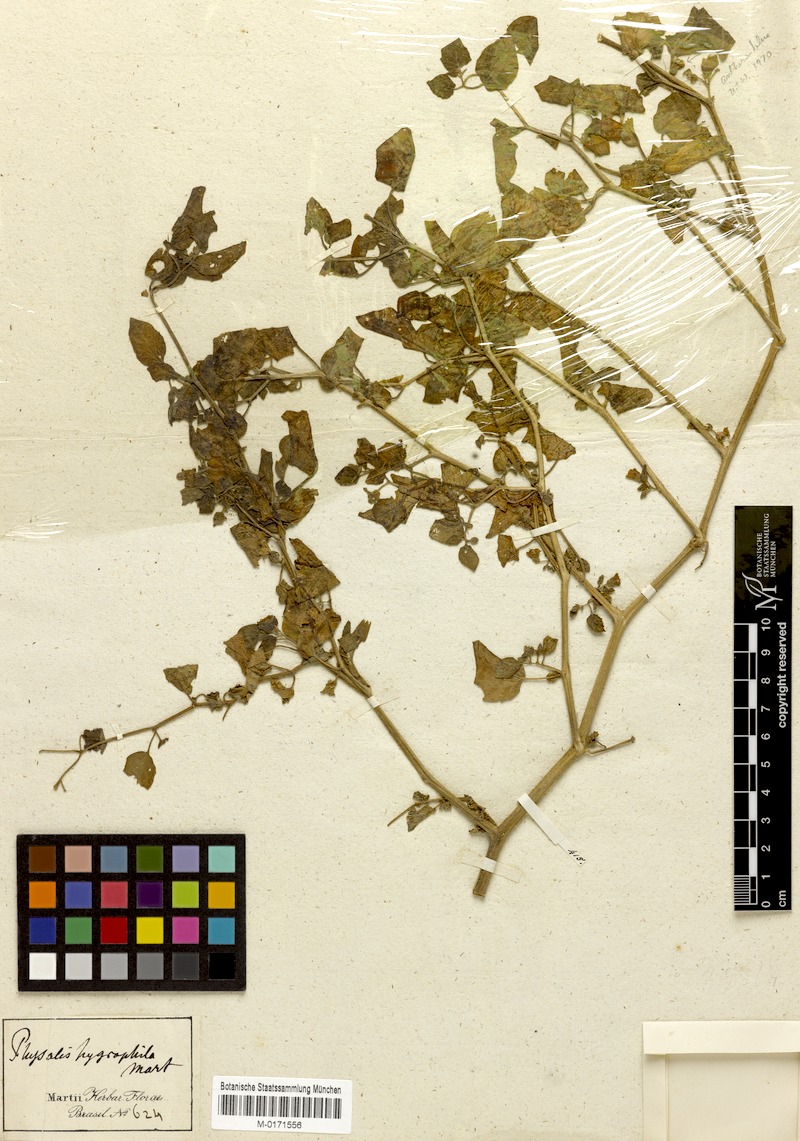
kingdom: Plantae
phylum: Tracheophyta
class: Magnoliopsida
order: Solanales
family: Solanaceae
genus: Physalis
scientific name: Physalis pubescens
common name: Downy ground-cherry
